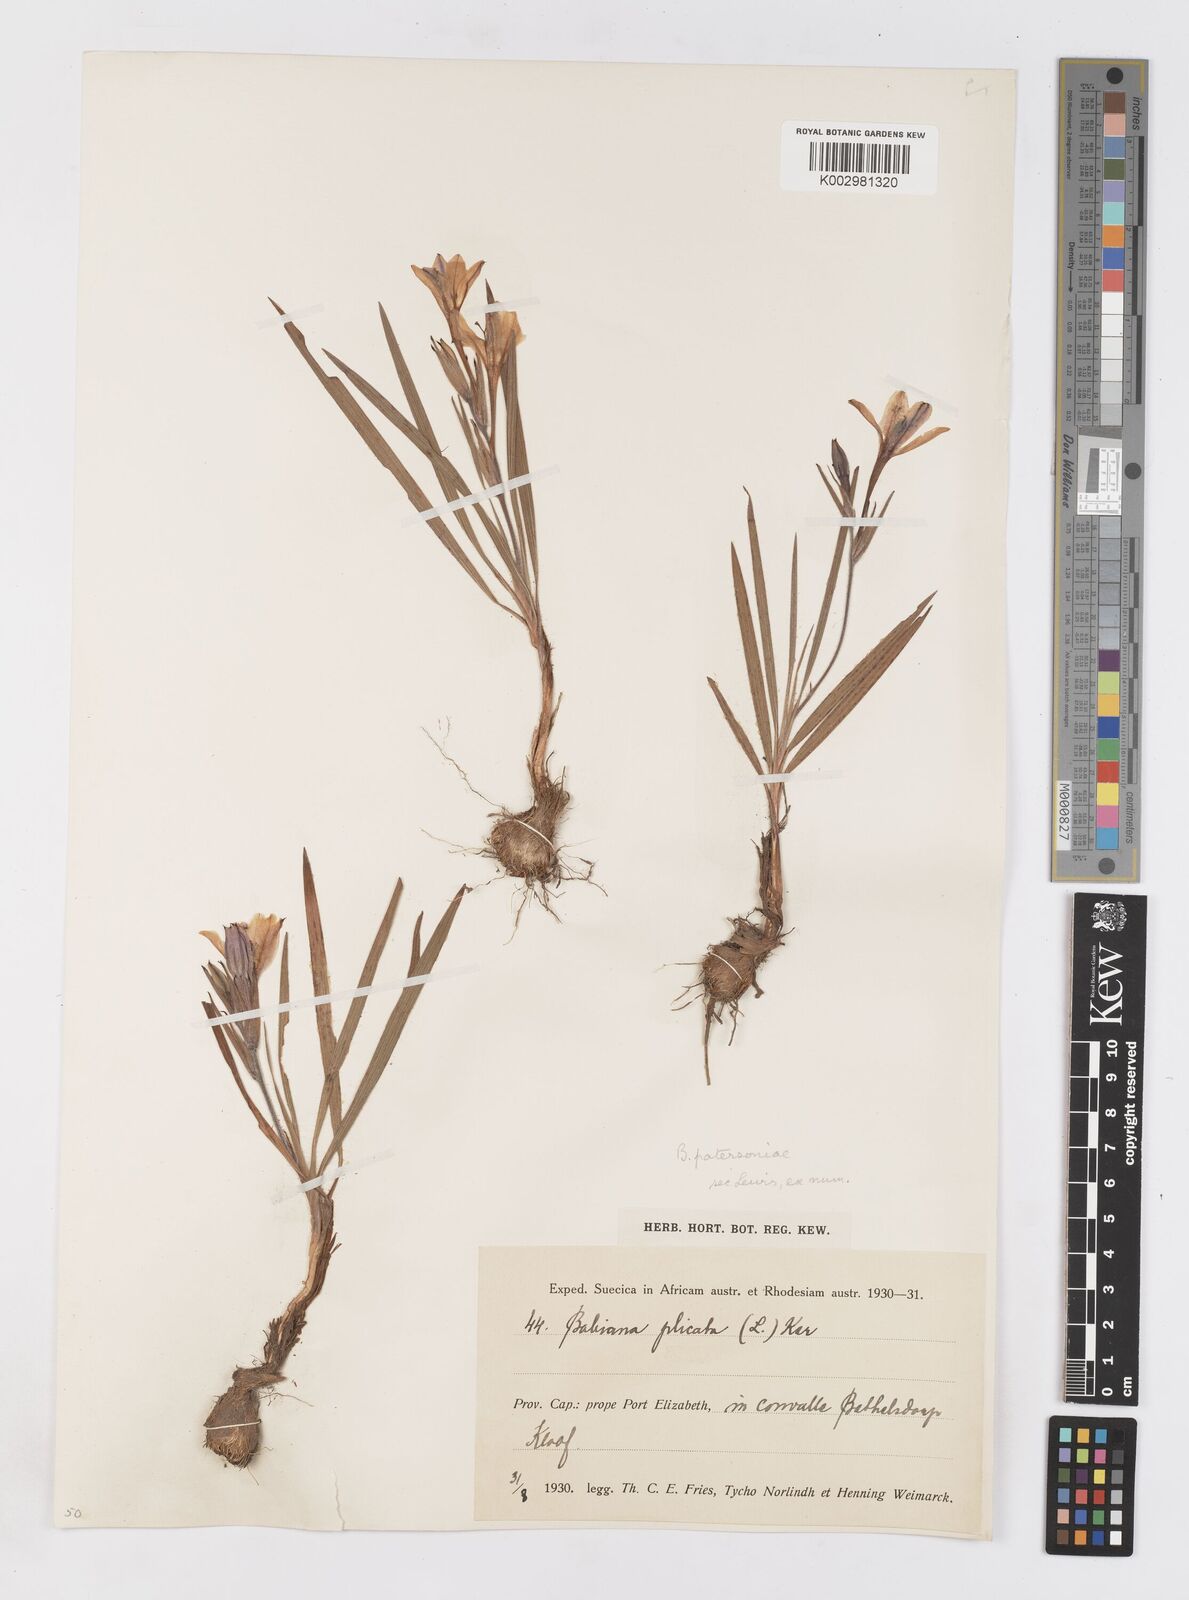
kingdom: Plantae
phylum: Tracheophyta
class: Liliopsida
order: Asparagales
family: Iridaceae
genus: Babiana
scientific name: Babiana patersoniae
